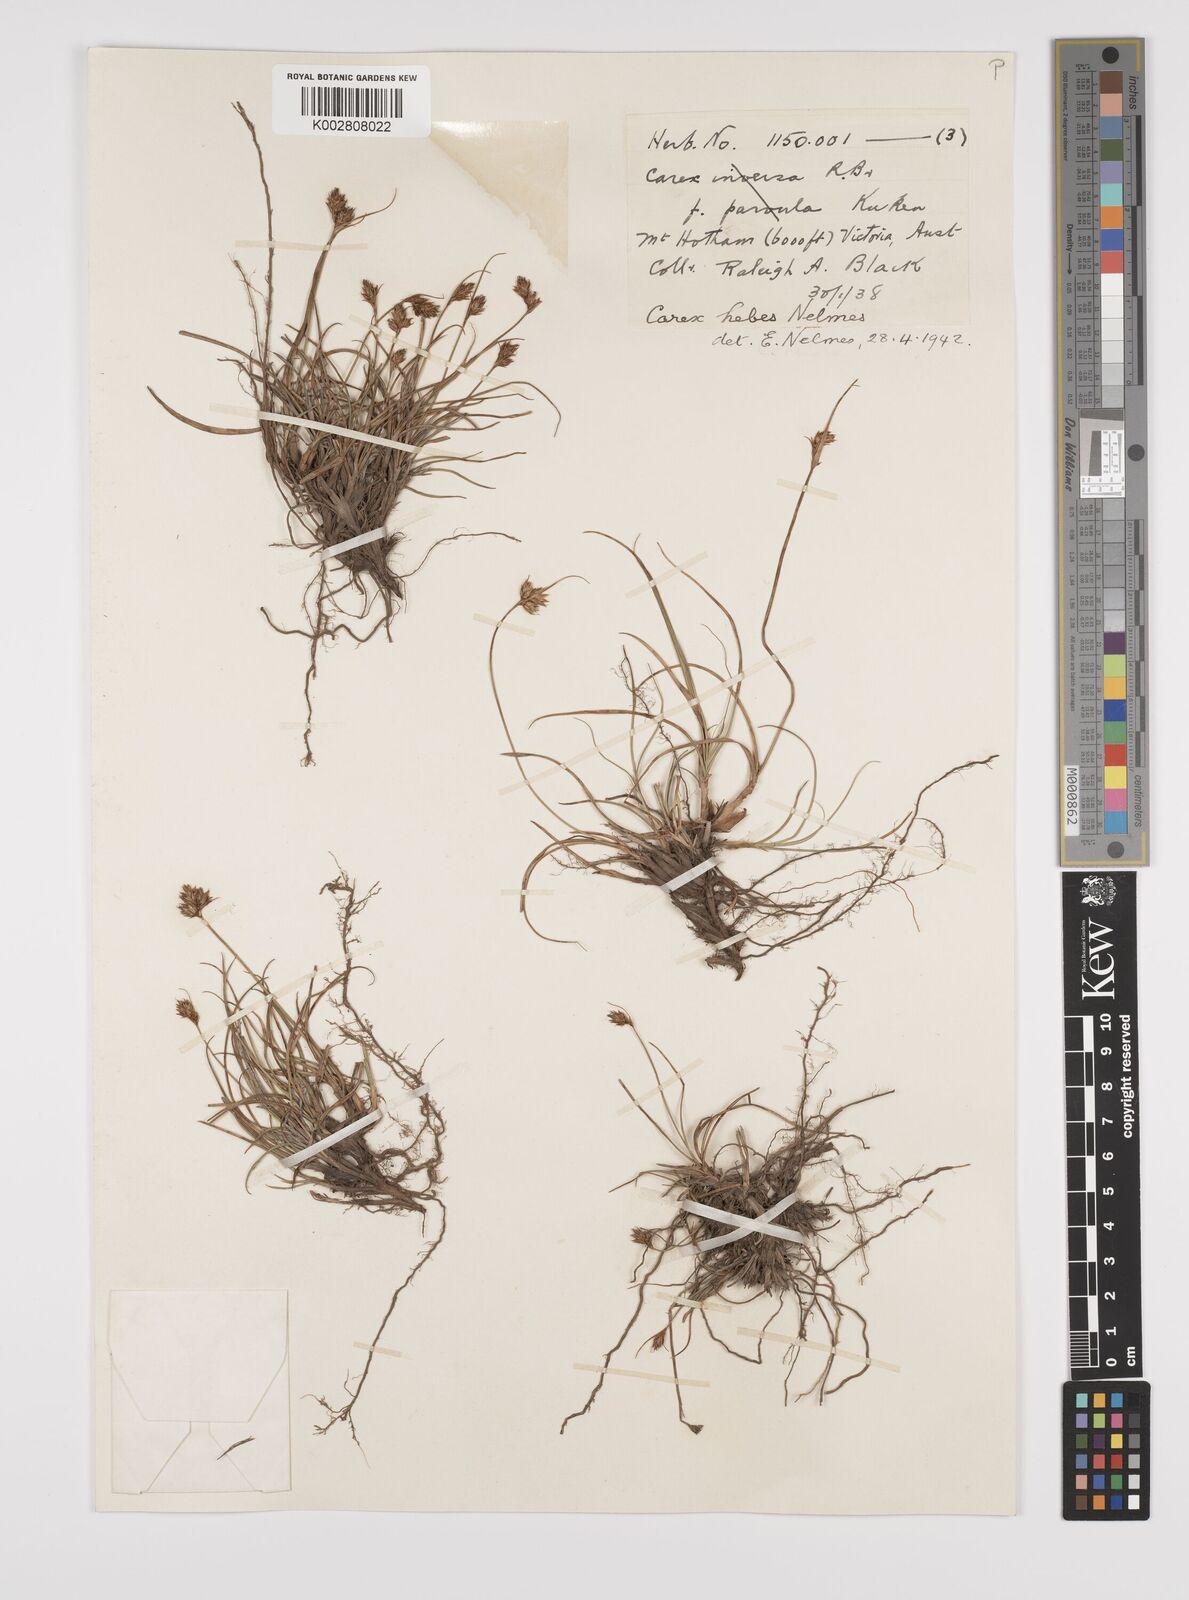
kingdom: Plantae
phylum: Tracheophyta
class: Liliopsida
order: Poales
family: Cyperaceae
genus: Carex
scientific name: Carex hebes
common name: Dry land sedge
